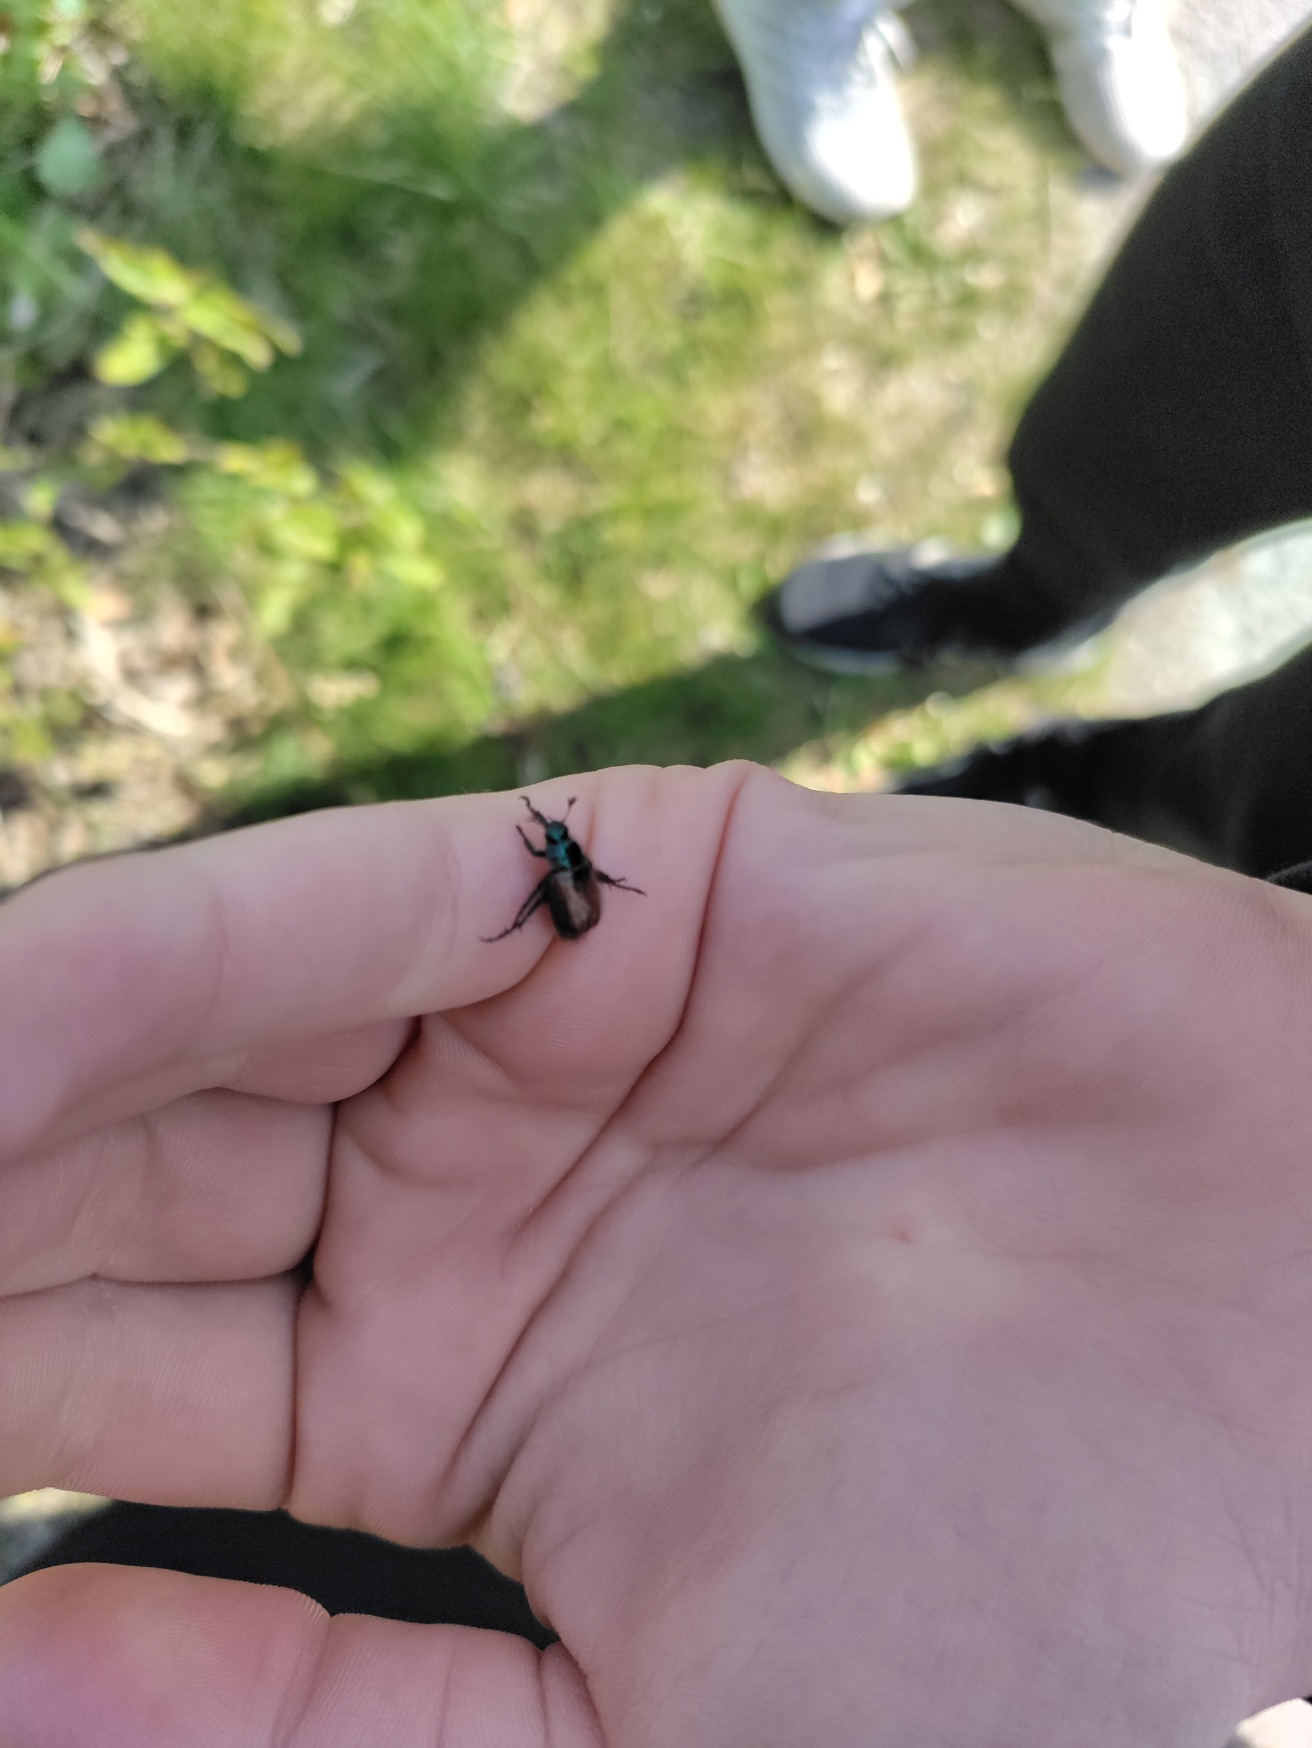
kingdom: Animalia
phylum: Arthropoda
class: Insecta
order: Coleoptera
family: Scarabaeidae
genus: Phyllopertha
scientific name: Phyllopertha horticola
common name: Gåsebille
